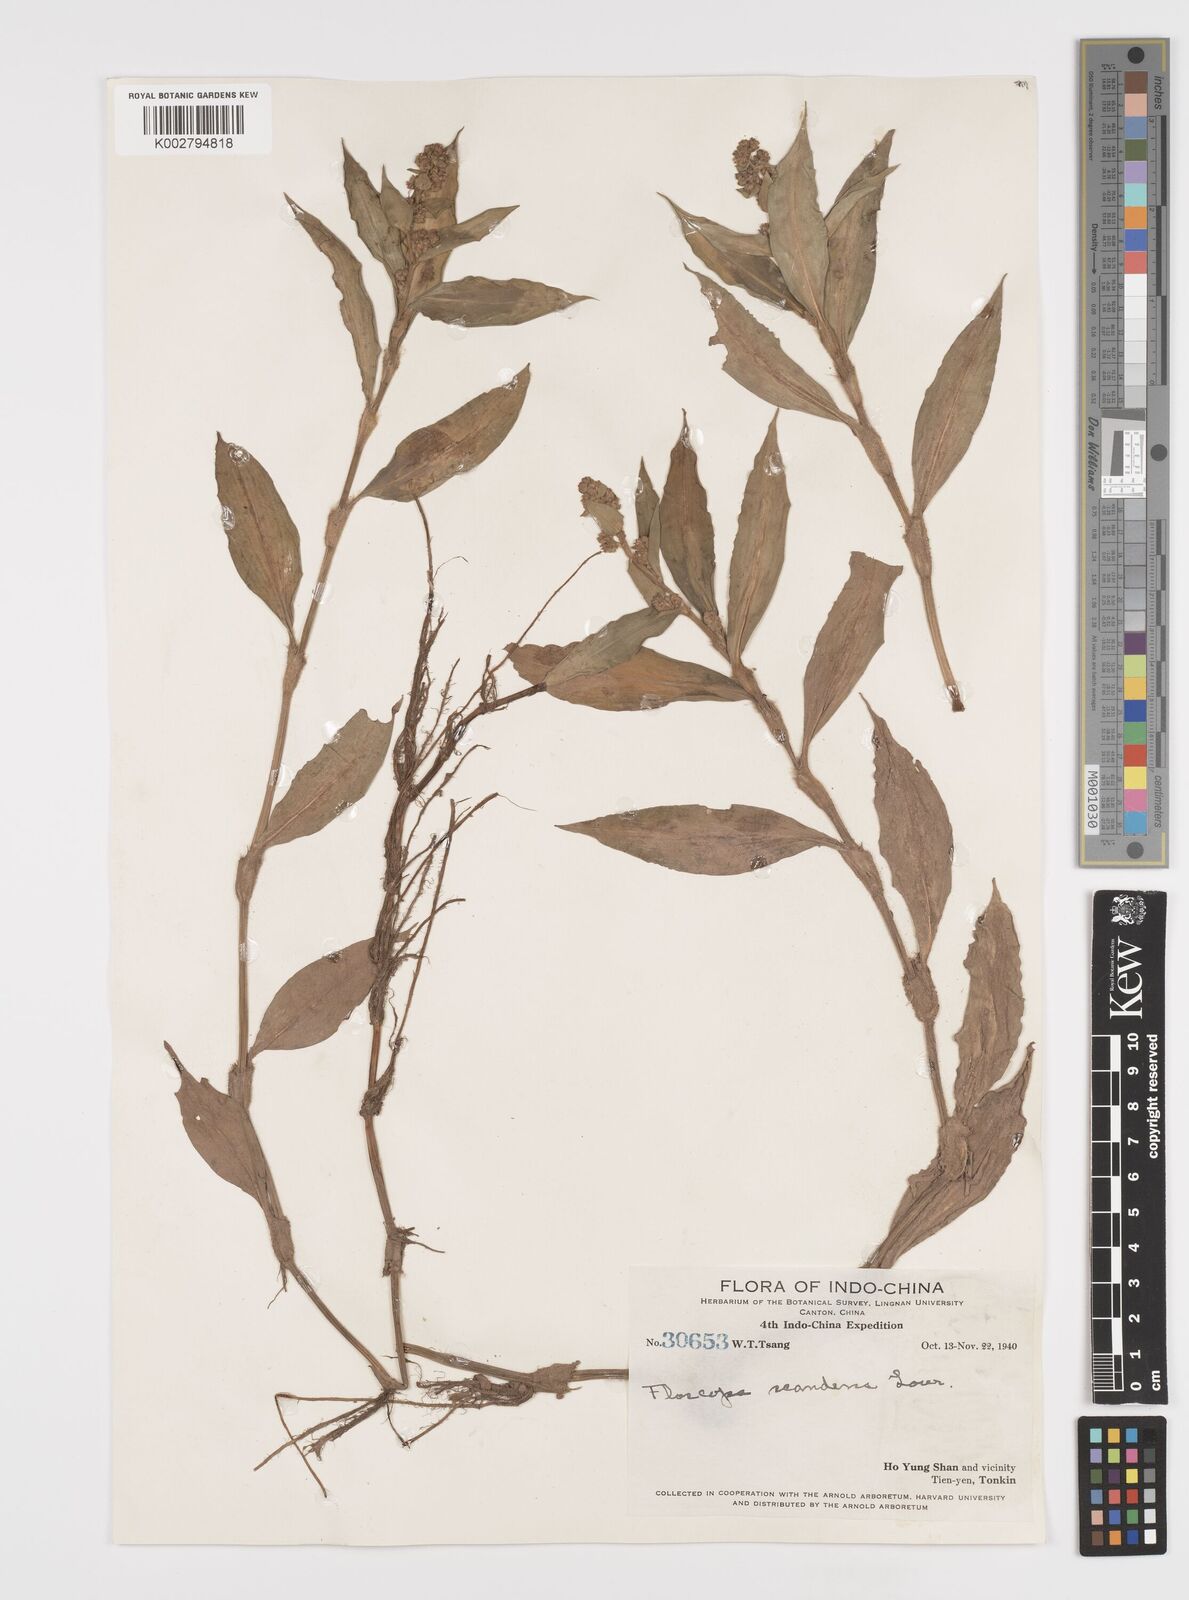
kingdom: Plantae
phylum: Tracheophyta
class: Liliopsida
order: Commelinales
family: Commelinaceae
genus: Floscopa
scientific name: Floscopa scandens
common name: Climbing flower cup
